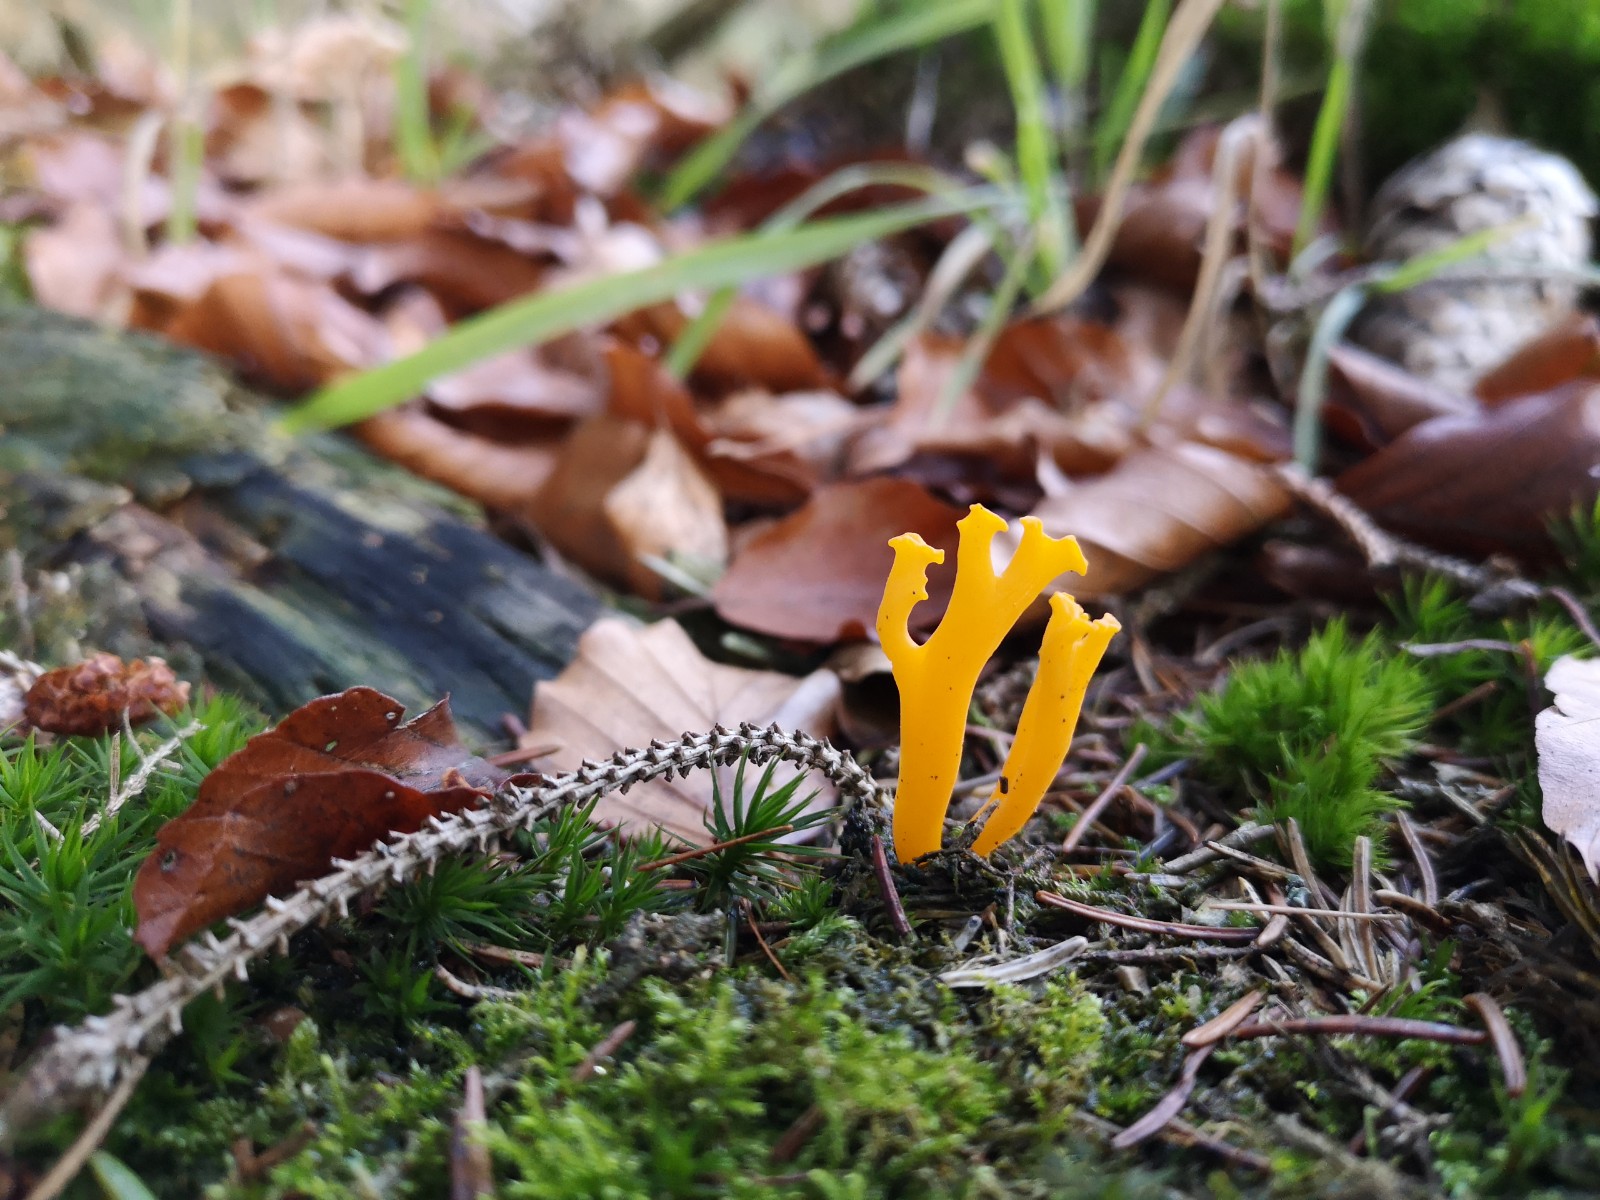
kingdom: Fungi
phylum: Basidiomycota
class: Dacrymycetes
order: Dacrymycetales
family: Dacrymycetaceae
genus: Calocera
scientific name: Calocera viscosa
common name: almindelig guldgaffel
